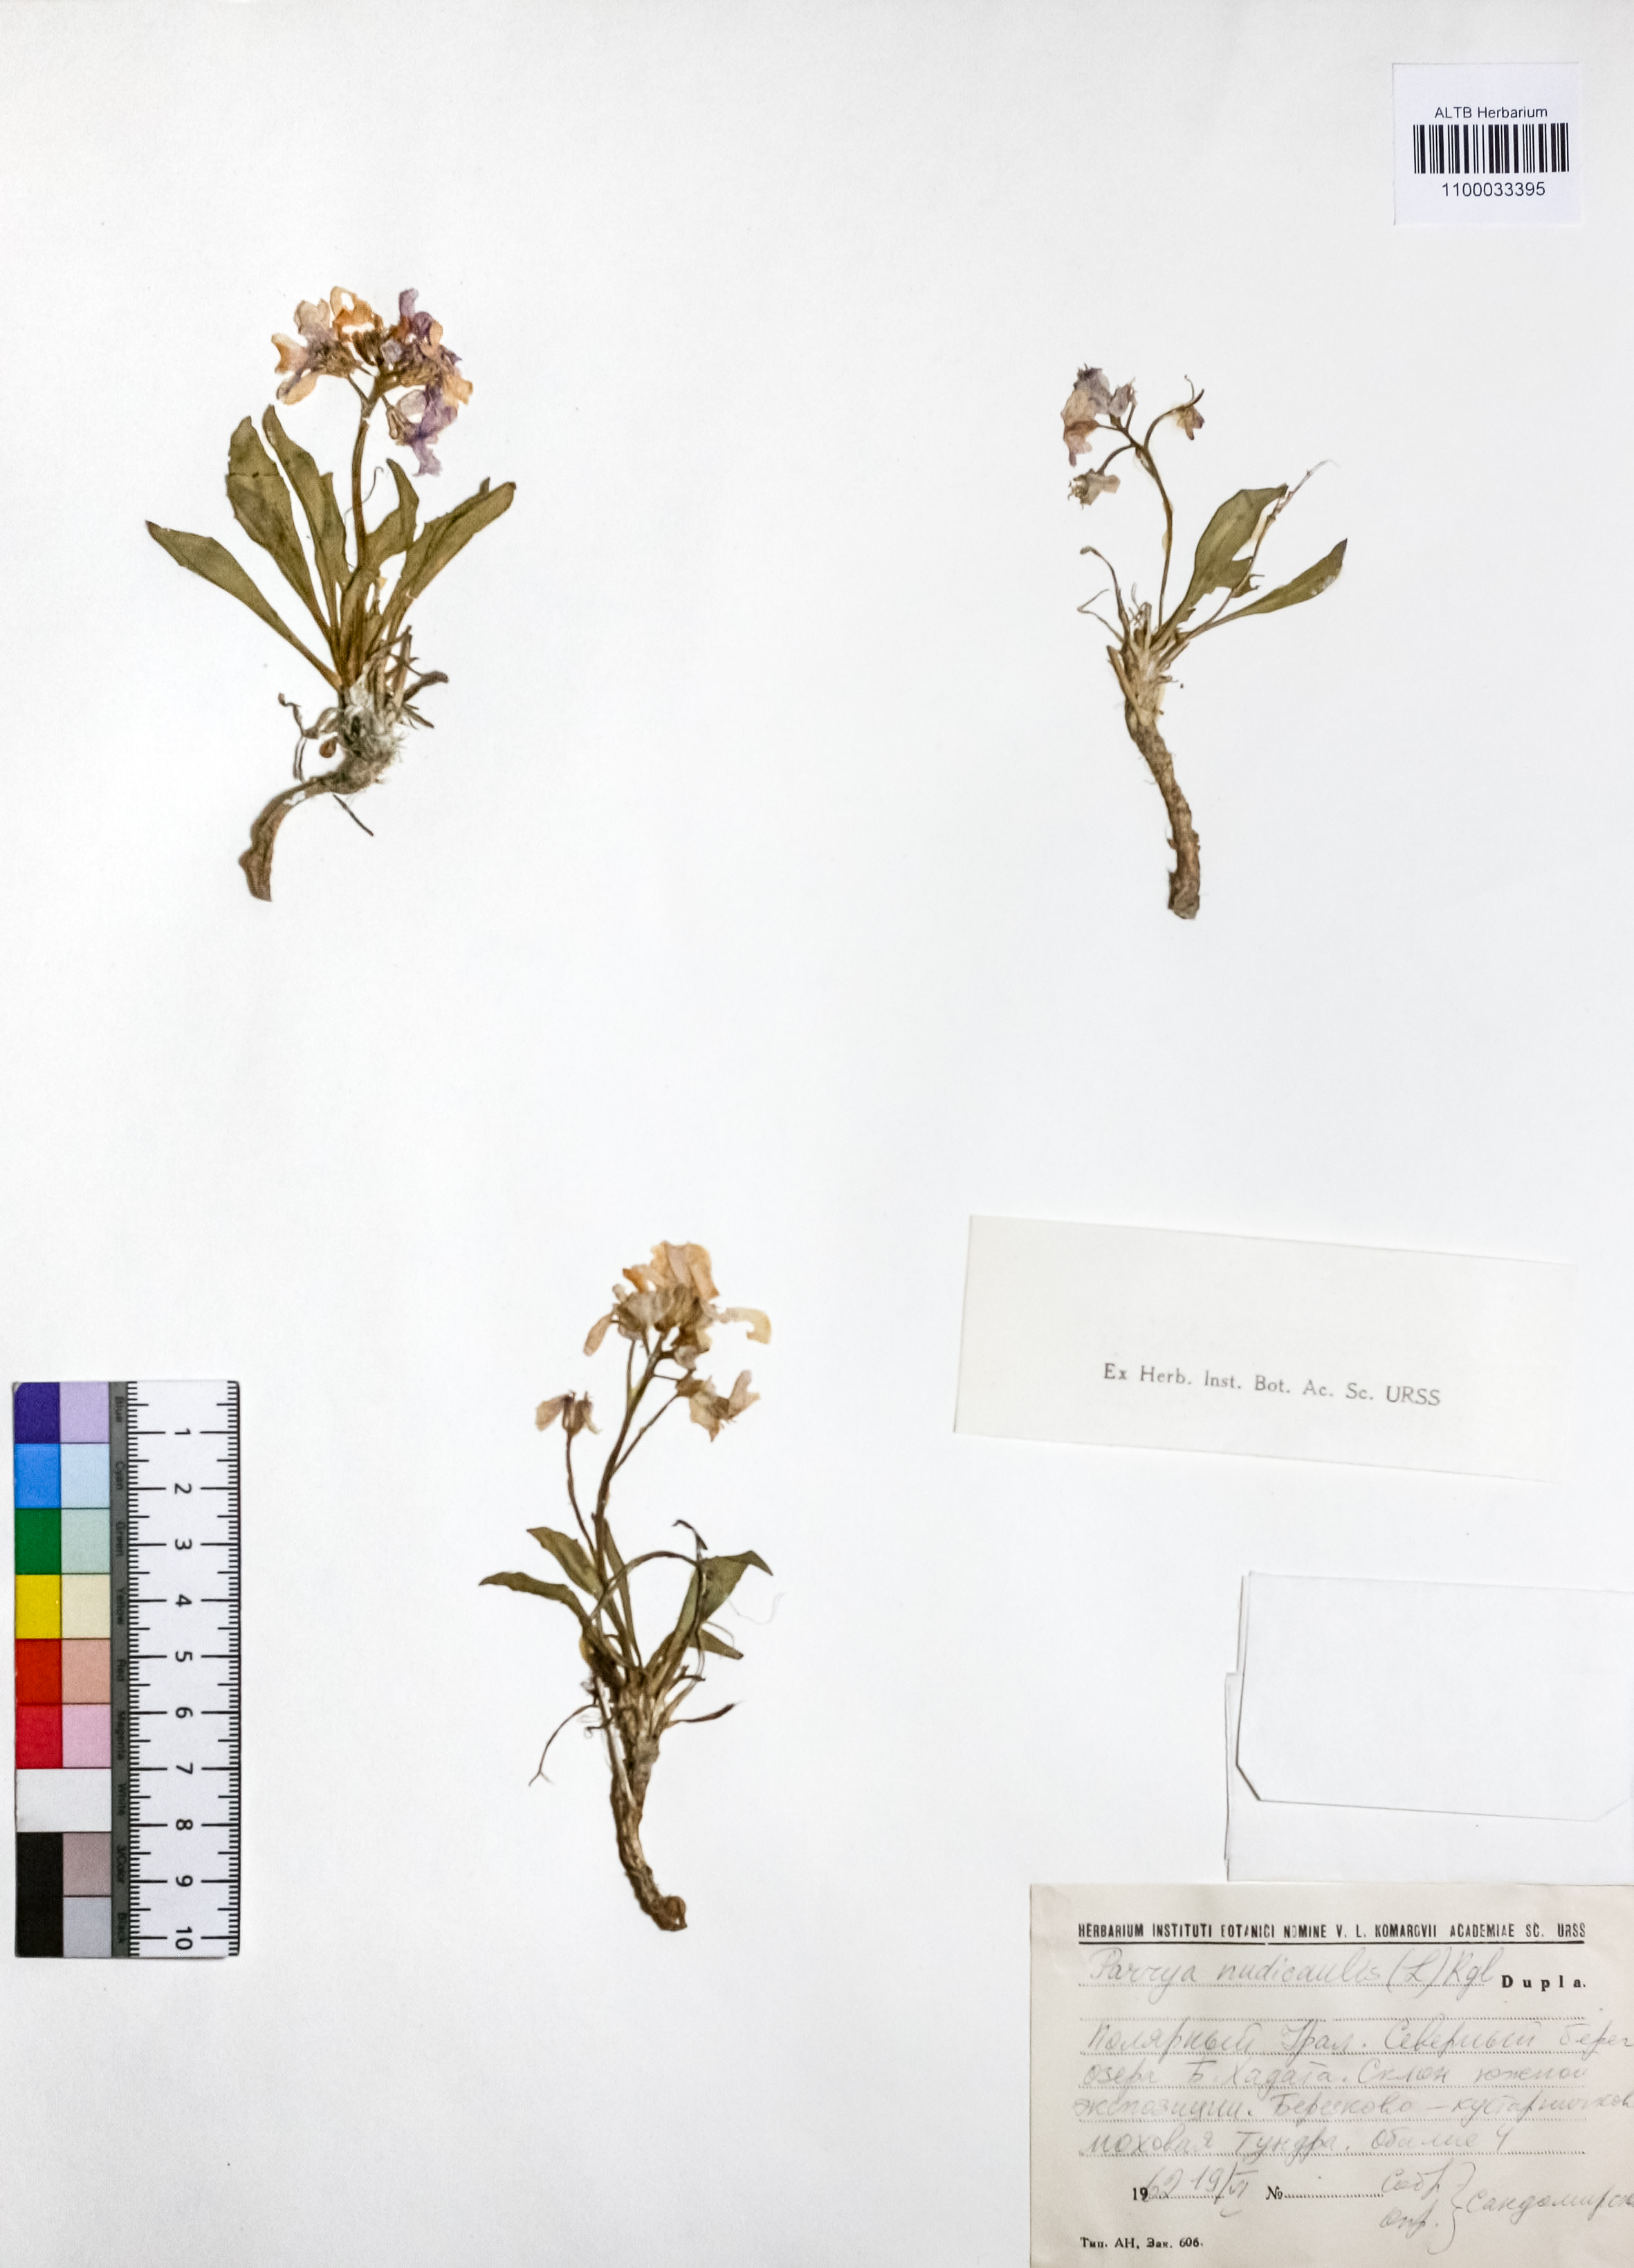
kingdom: Plantae
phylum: Tracheophyta
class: Magnoliopsida
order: Brassicales
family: Brassicaceae
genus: Parrya
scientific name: Parrya nudicaulis
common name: Naked-stemmed false wallflower
